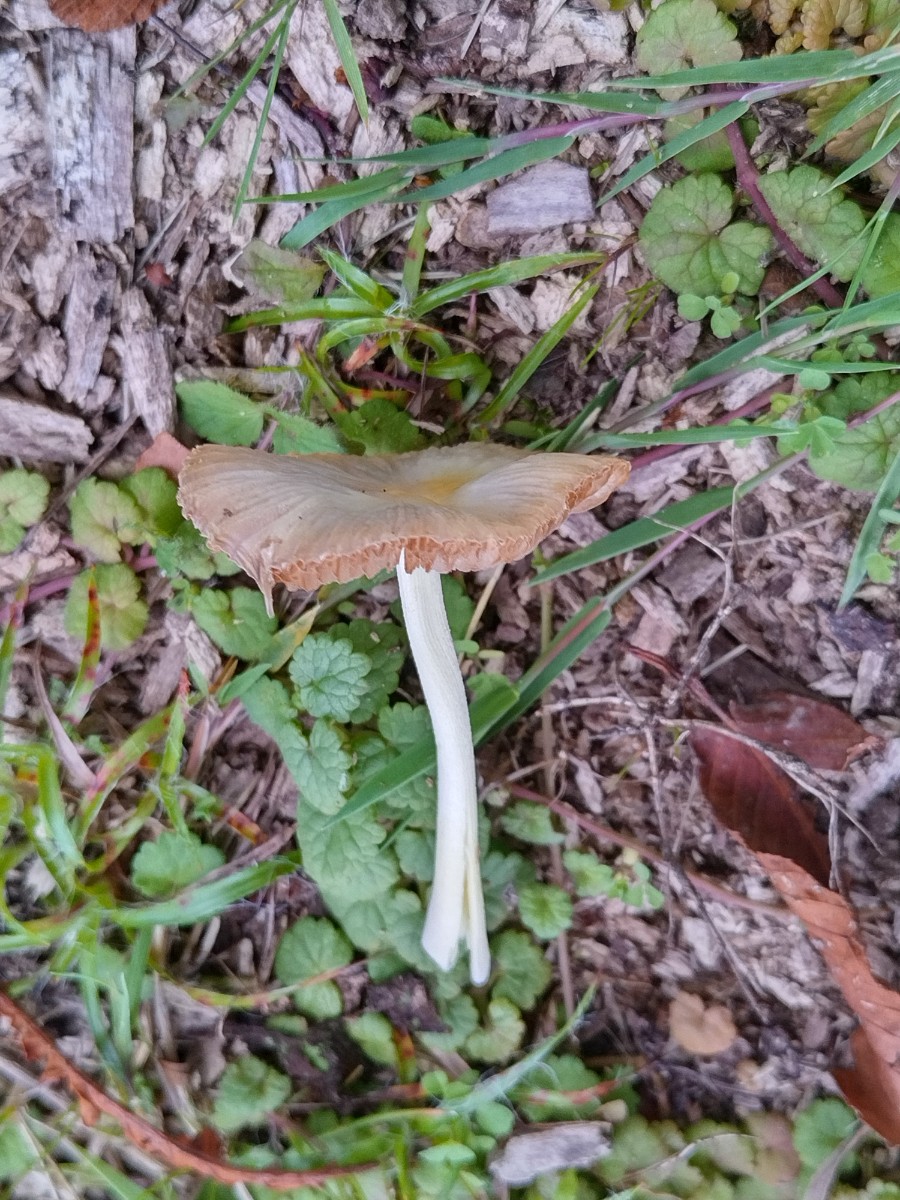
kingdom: Fungi
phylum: Basidiomycota
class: Agaricomycetes
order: Agaricales
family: Bolbitiaceae
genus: Bolbitius
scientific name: Bolbitius titubans
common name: almindelig gulhat
